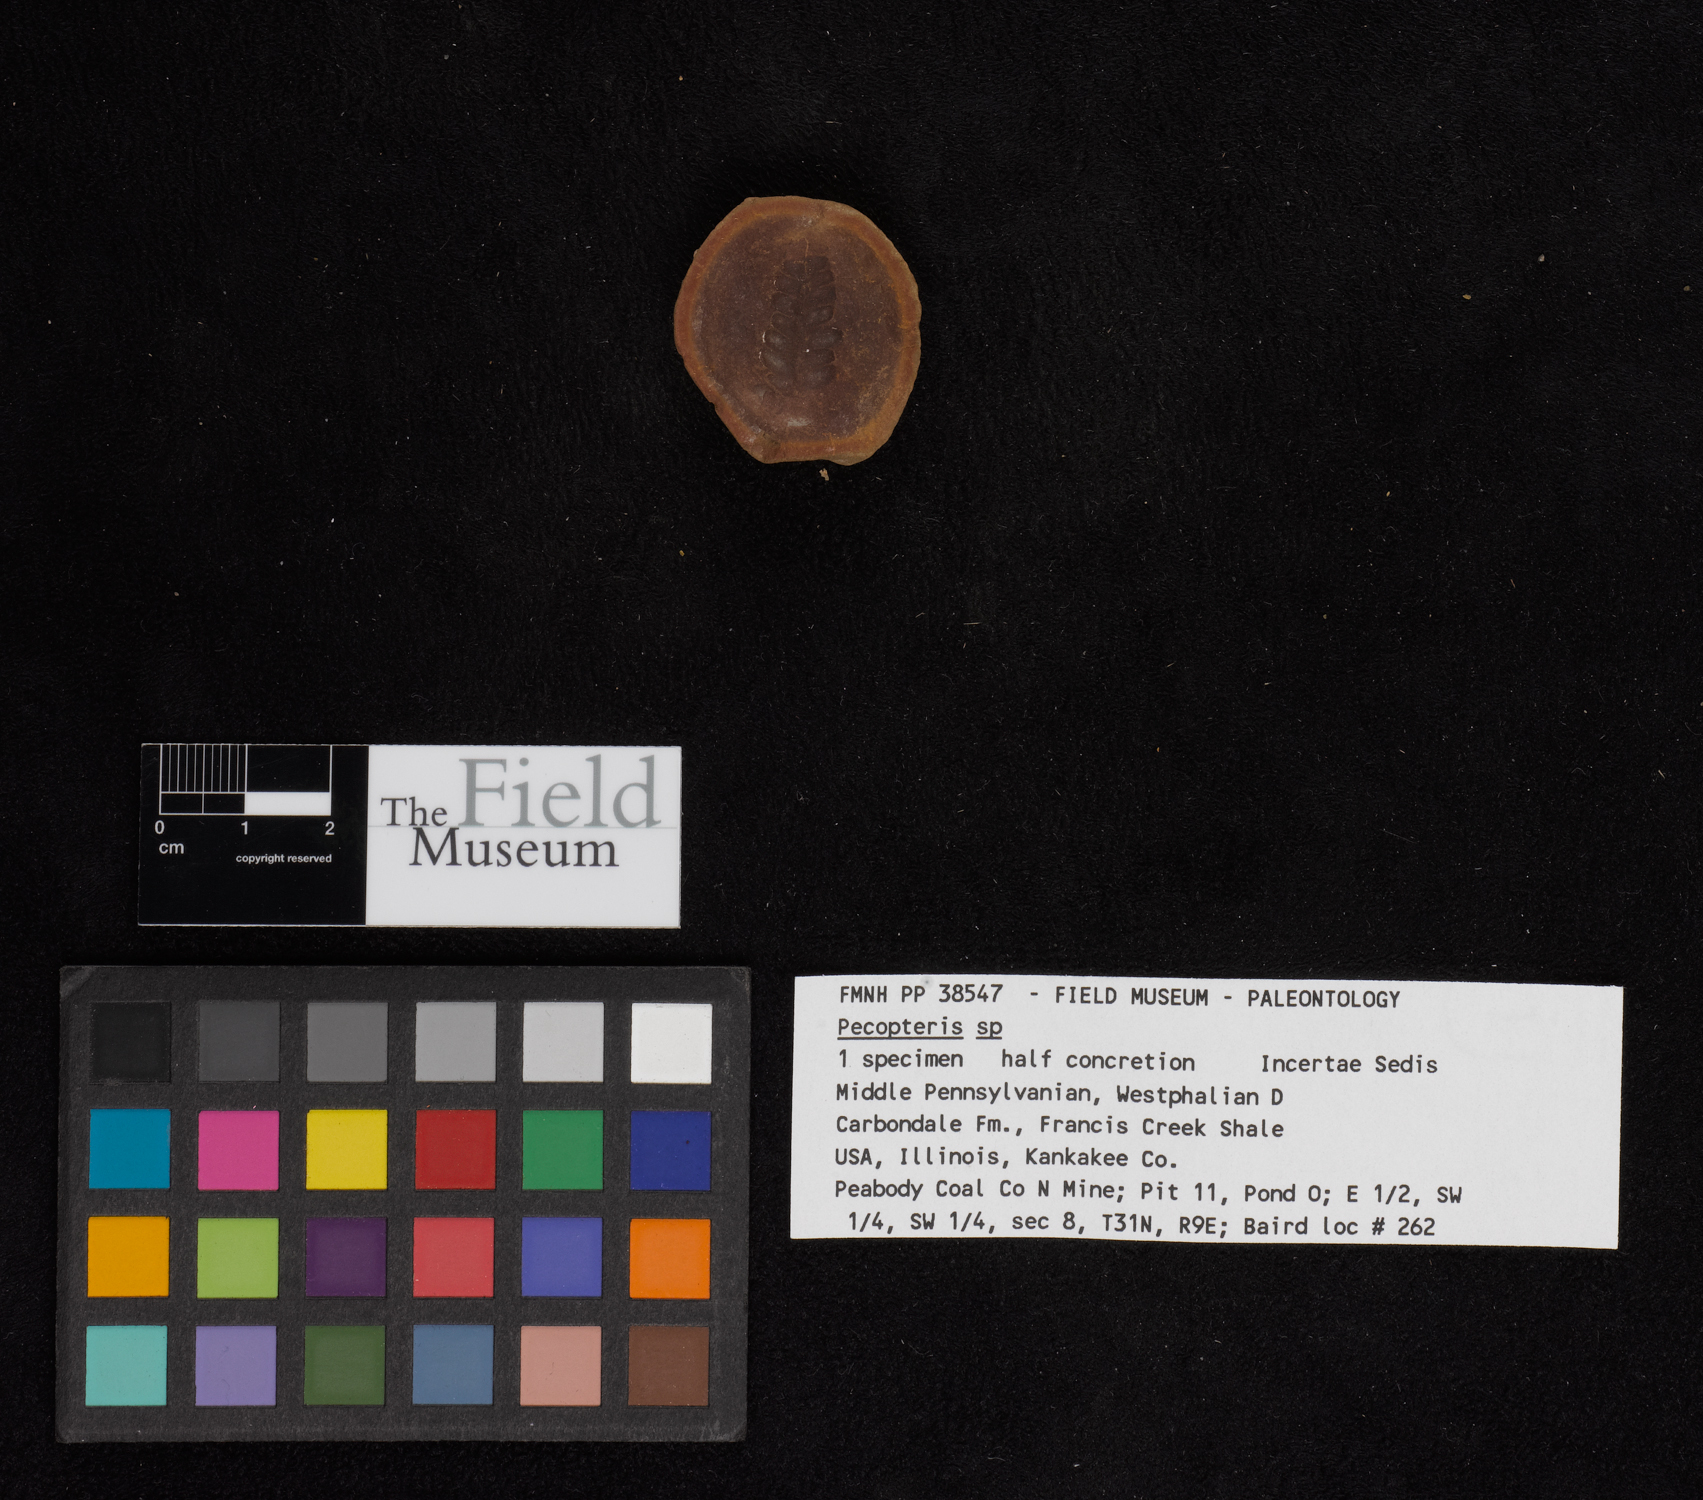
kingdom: Plantae
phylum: Tracheophyta
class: Polypodiopsida
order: Marattiales
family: Asterothecaceae
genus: Pecopteris
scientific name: Pecopteris
